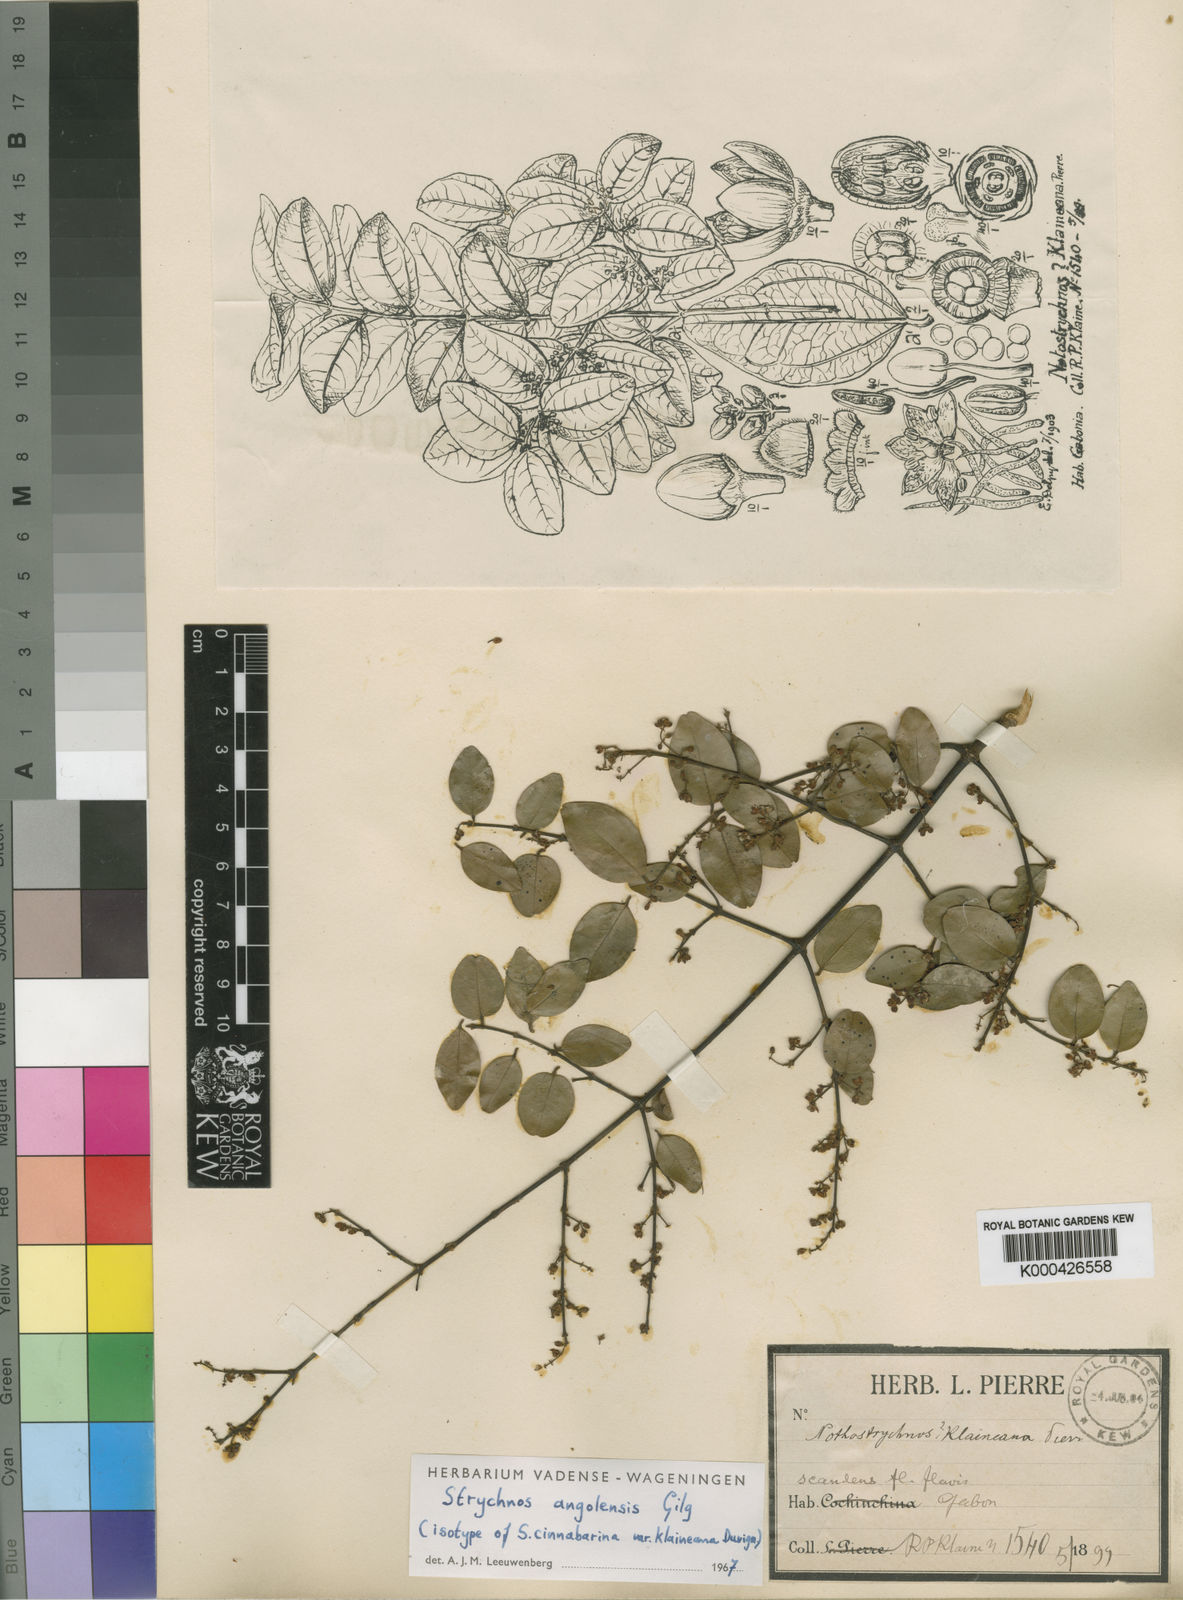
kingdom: Plantae
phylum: Tracheophyta
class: Magnoliopsida
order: Gentianales
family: Loganiaceae
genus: Strychnos
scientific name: Strychnos angolensis
